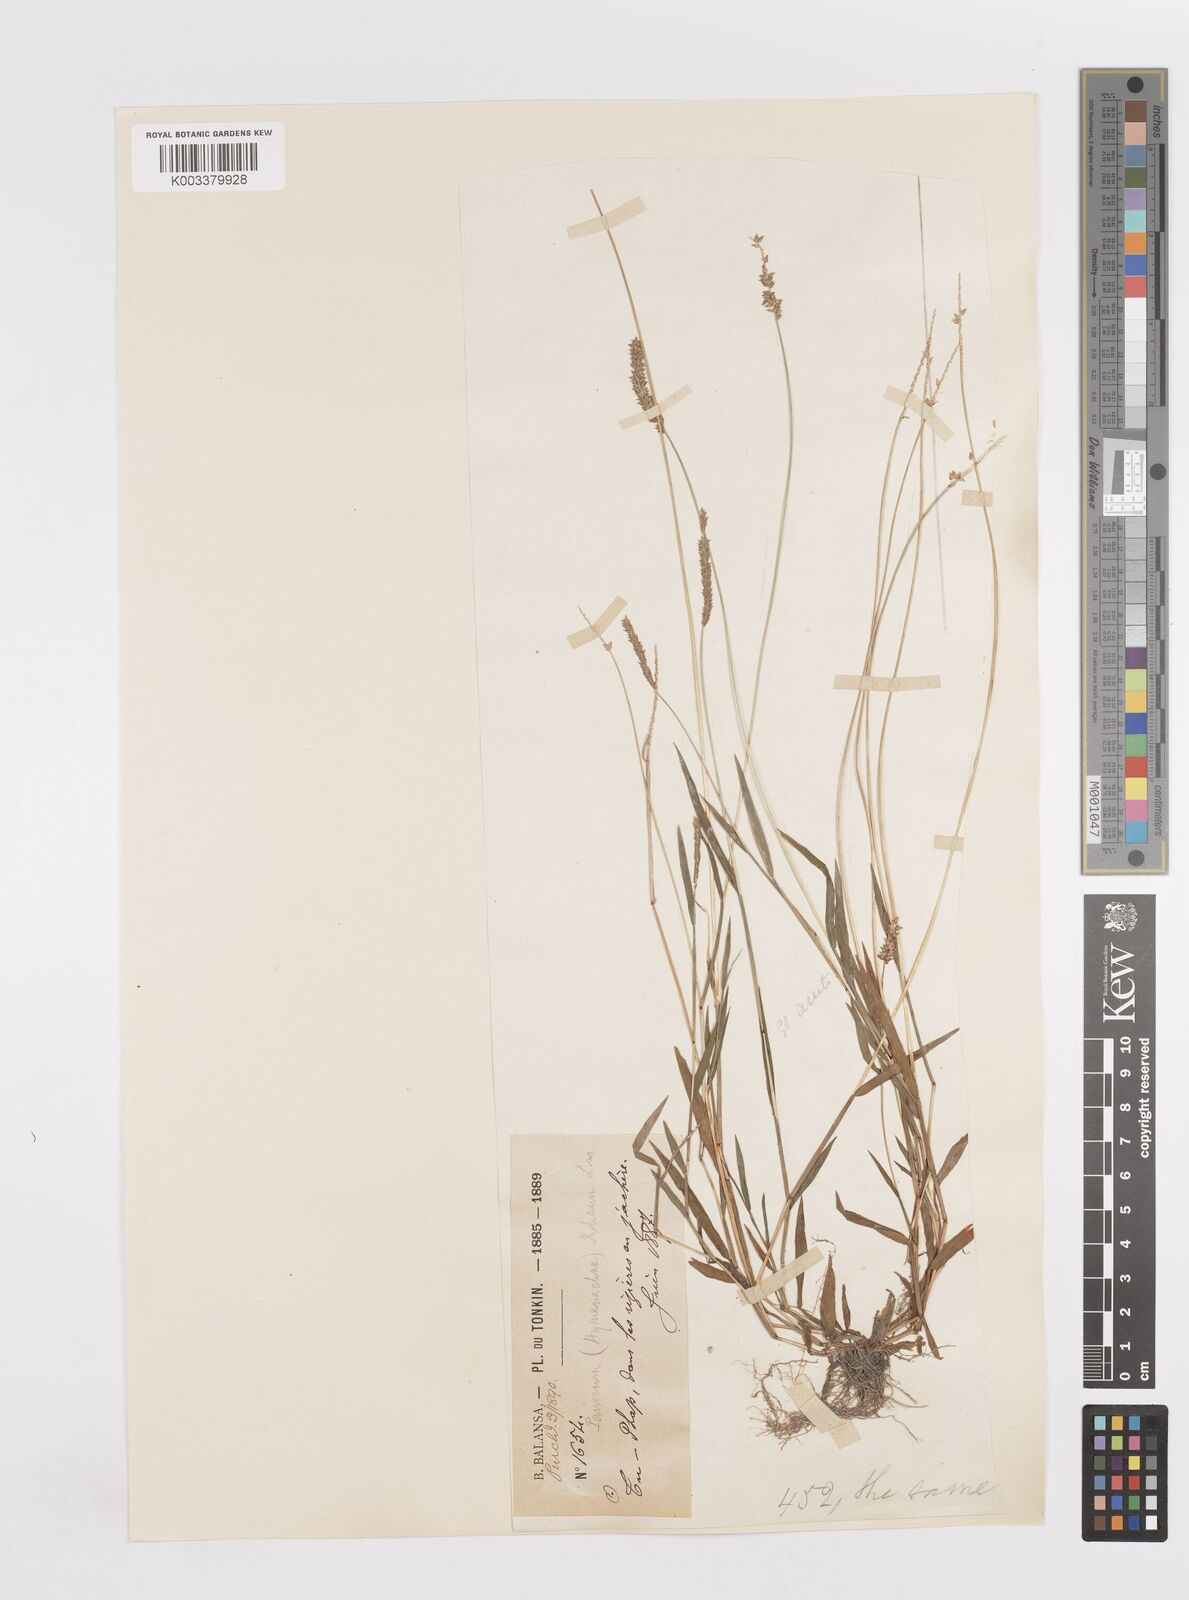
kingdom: Plantae
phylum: Tracheophyta
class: Liliopsida
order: Poales
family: Poaceae
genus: Sacciolepis
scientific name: Sacciolepis indica
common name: Glenwoodgrass
